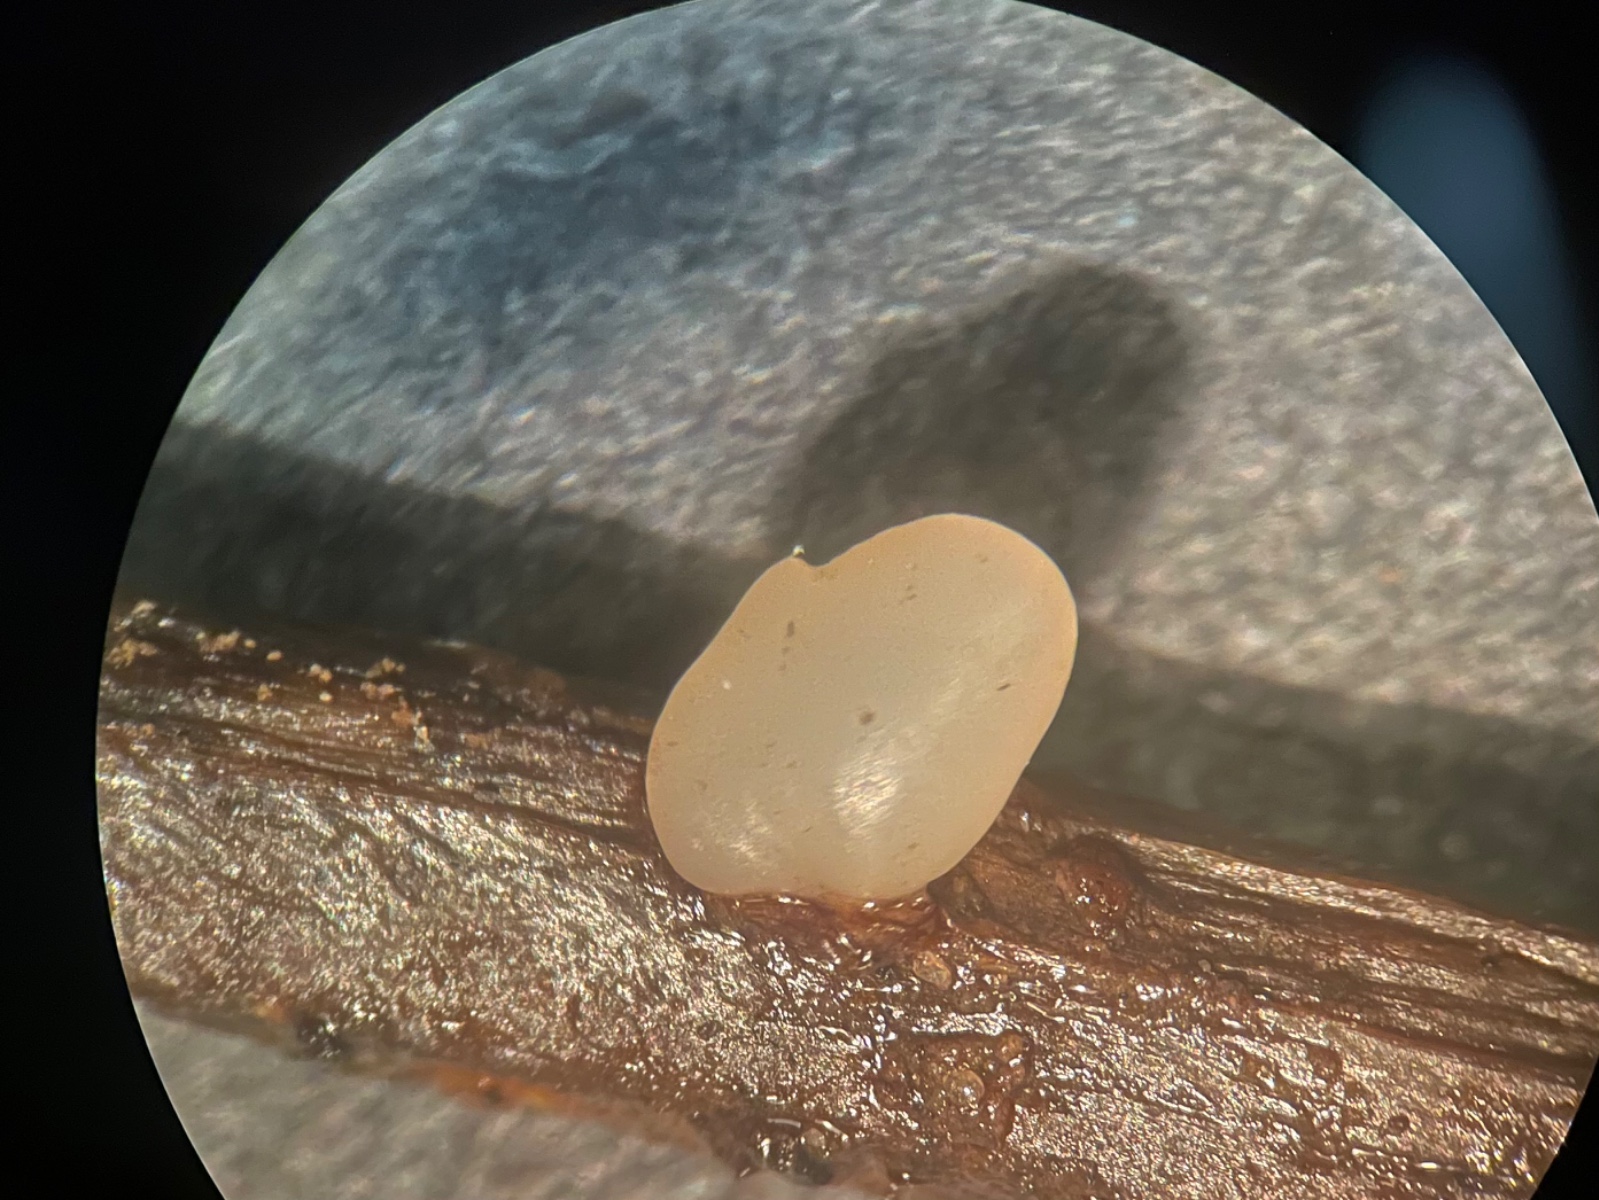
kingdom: Fungi
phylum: Basidiomycota
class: Agaricomycetes
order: Agaricales
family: Typhulaceae
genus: Macrotyphula
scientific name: Macrotyphula phacorrhiza
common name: lang rørkølle
